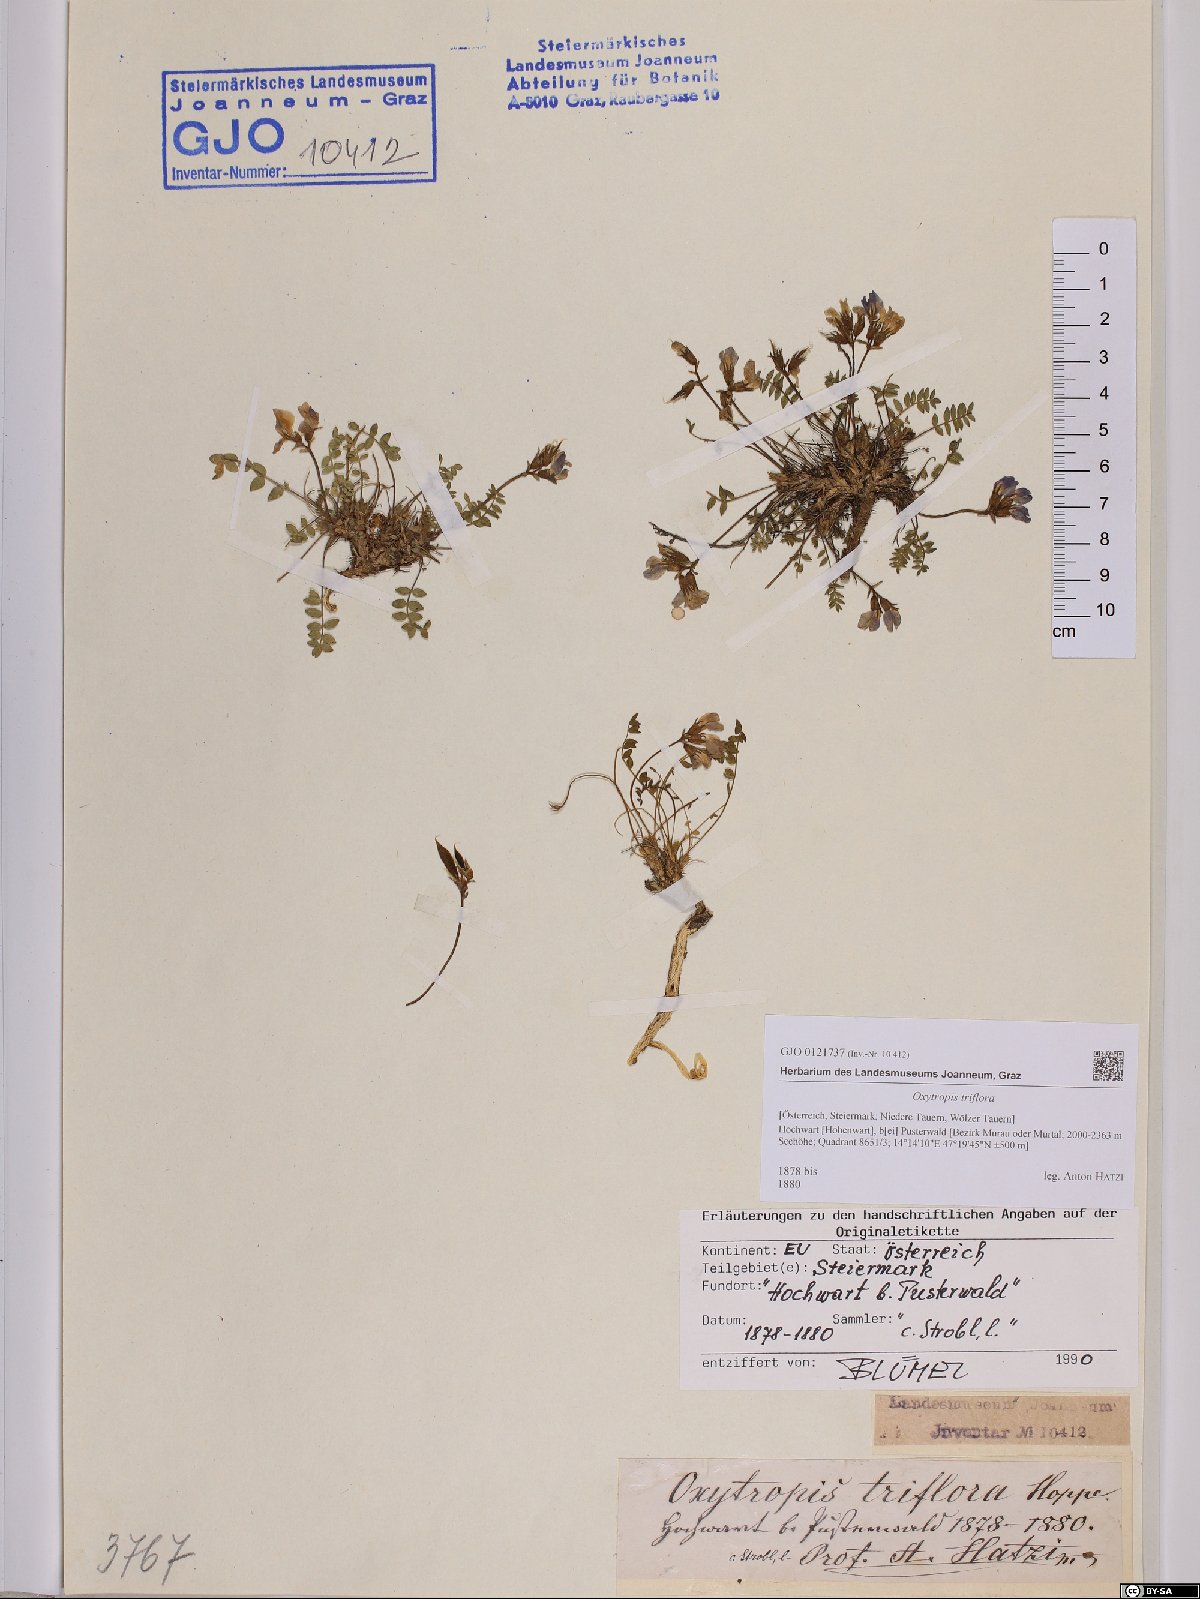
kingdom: Plantae
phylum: Tracheophyta
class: Magnoliopsida
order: Fabales
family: Fabaceae
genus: Oxytropis
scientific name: Oxytropis triflora
